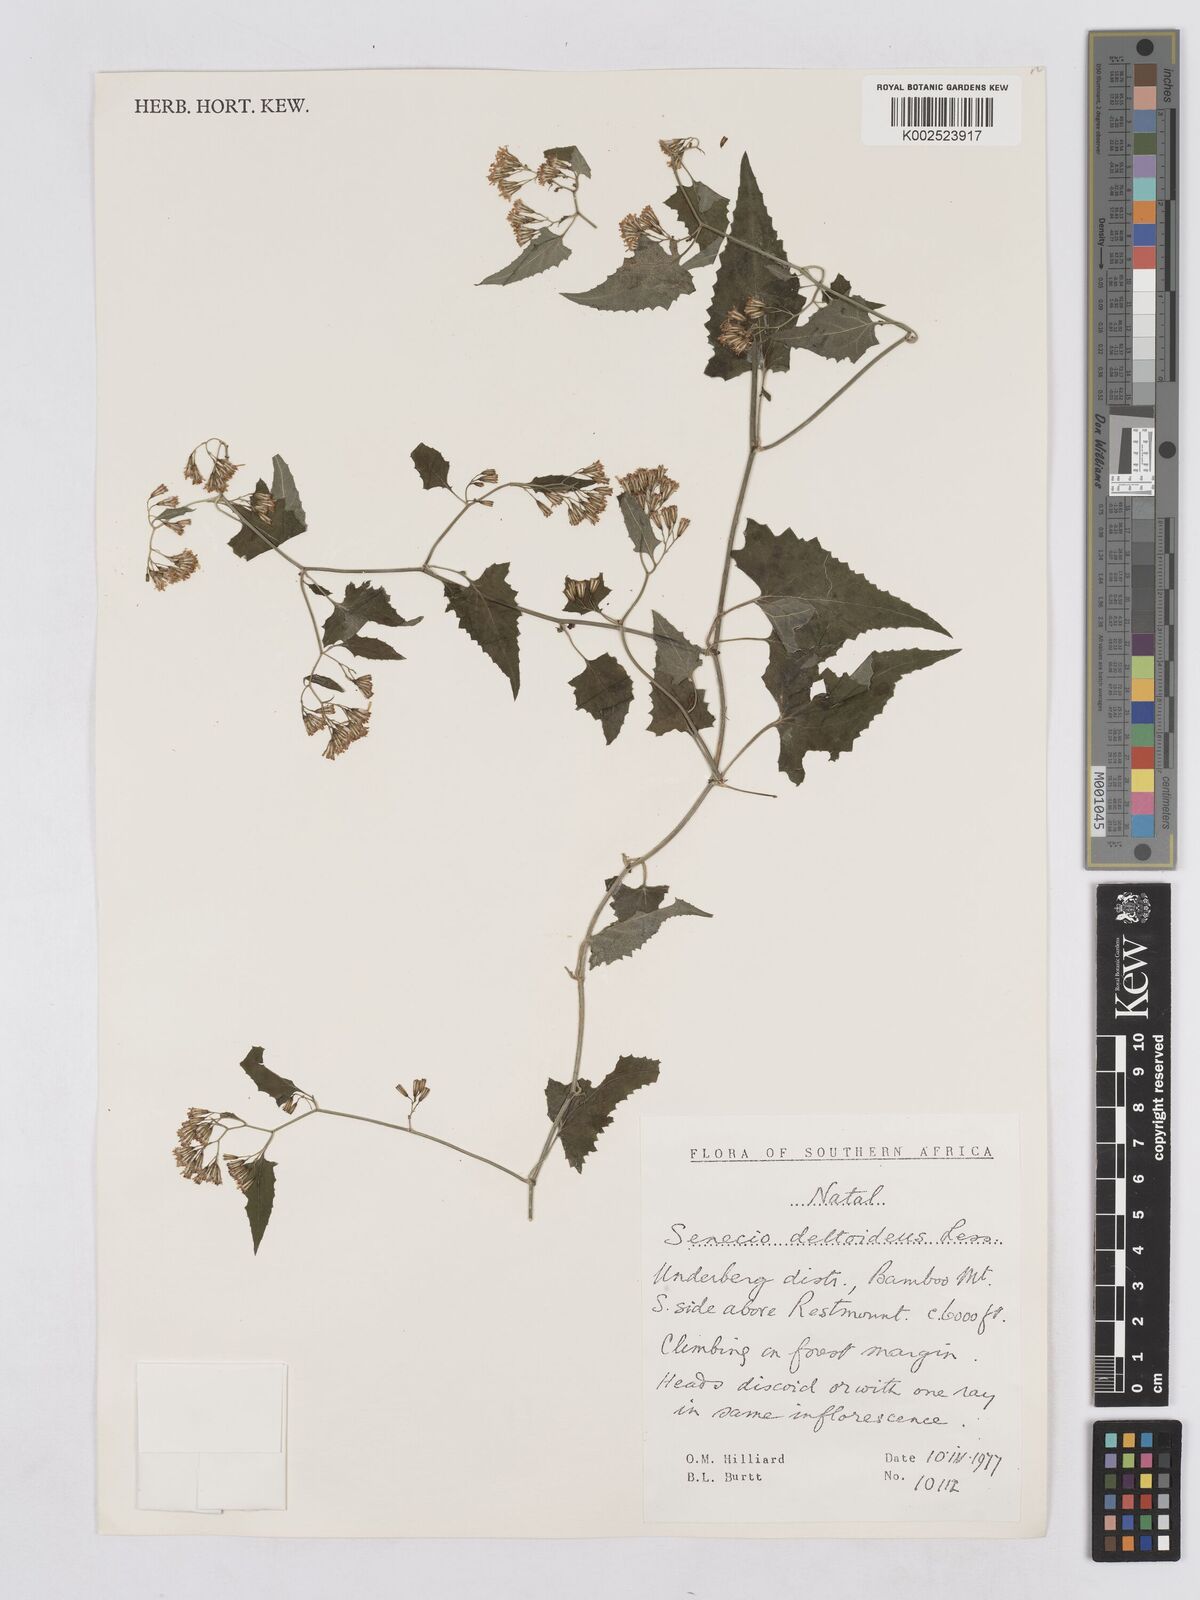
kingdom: Plantae
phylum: Tracheophyta
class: Magnoliopsida
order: Asterales
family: Asteraceae
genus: Senecio
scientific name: Senecio deltoideus
